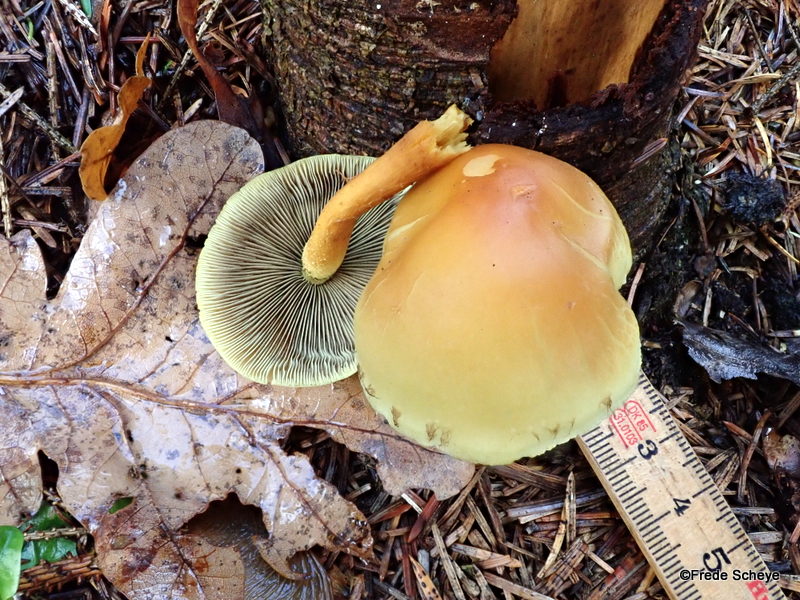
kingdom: Fungi
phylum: Basidiomycota
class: Agaricomycetes
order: Agaricales
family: Strophariaceae
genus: Hypholoma
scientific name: Hypholoma fasciculare
